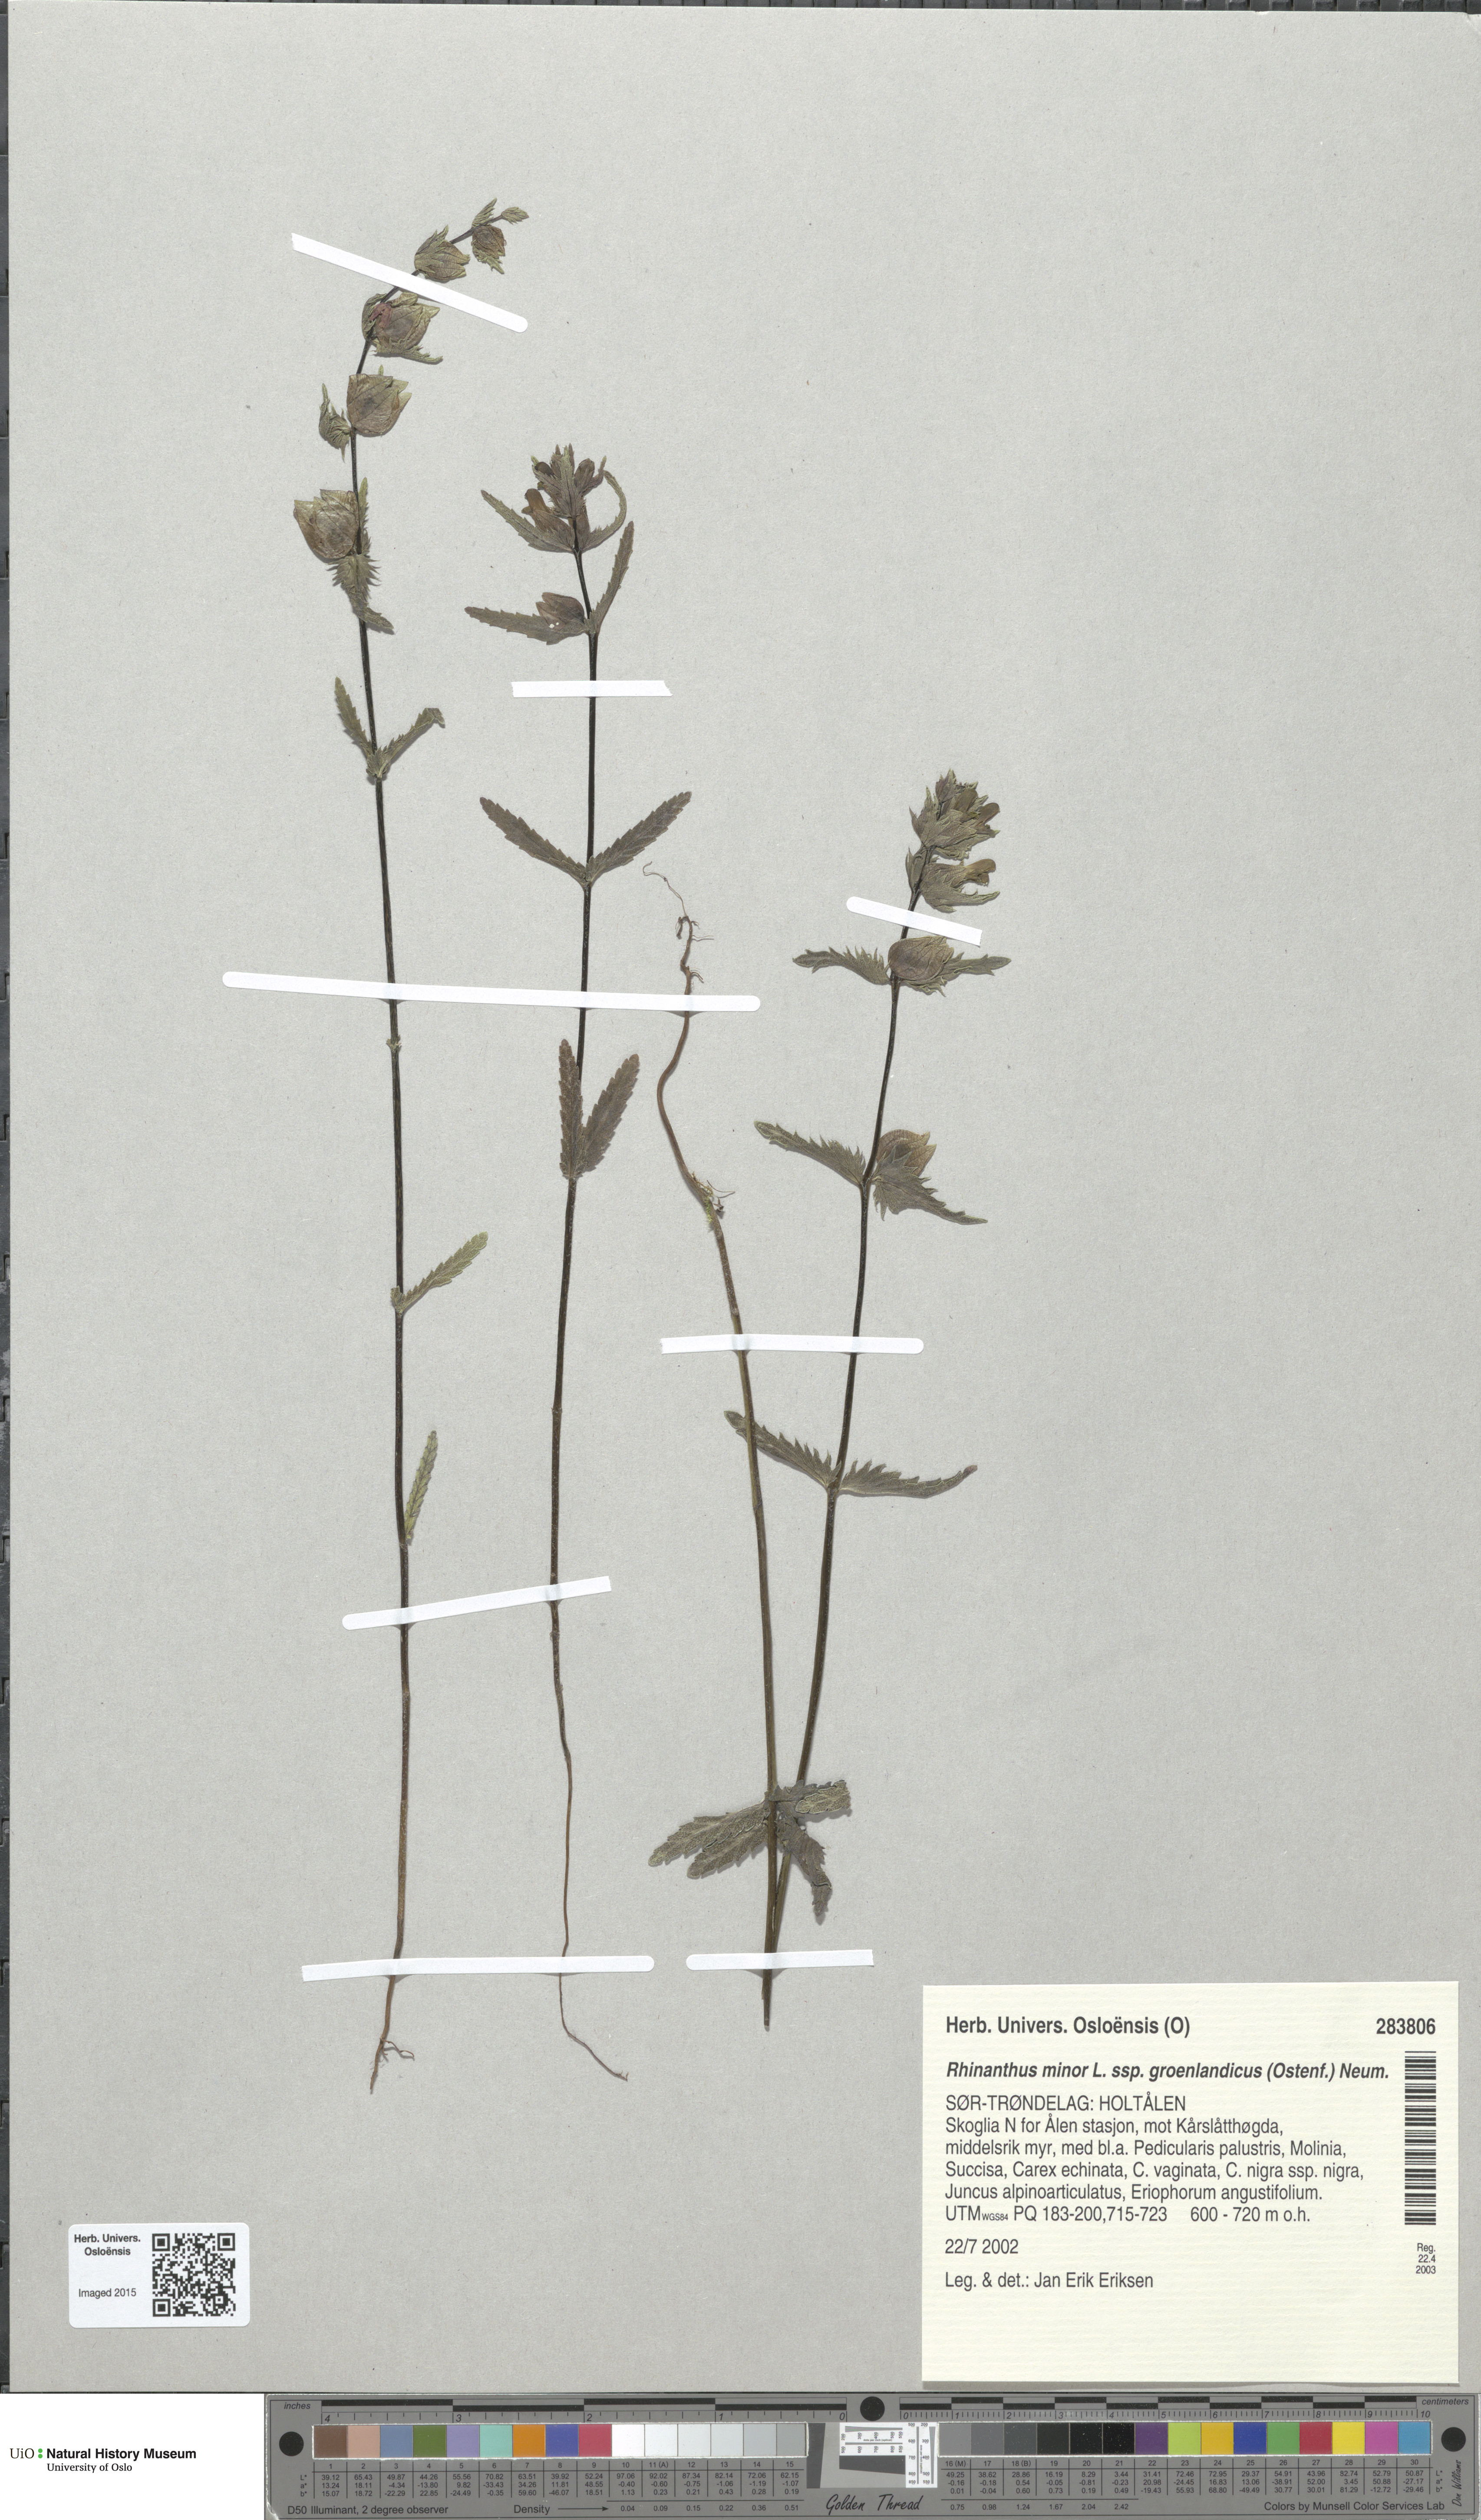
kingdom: Plantae
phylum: Tracheophyta
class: Magnoliopsida
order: Lamiales
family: Orobanchaceae
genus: Rhinanthus
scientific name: Rhinanthus groenlandicus
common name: Little yellow rattle
